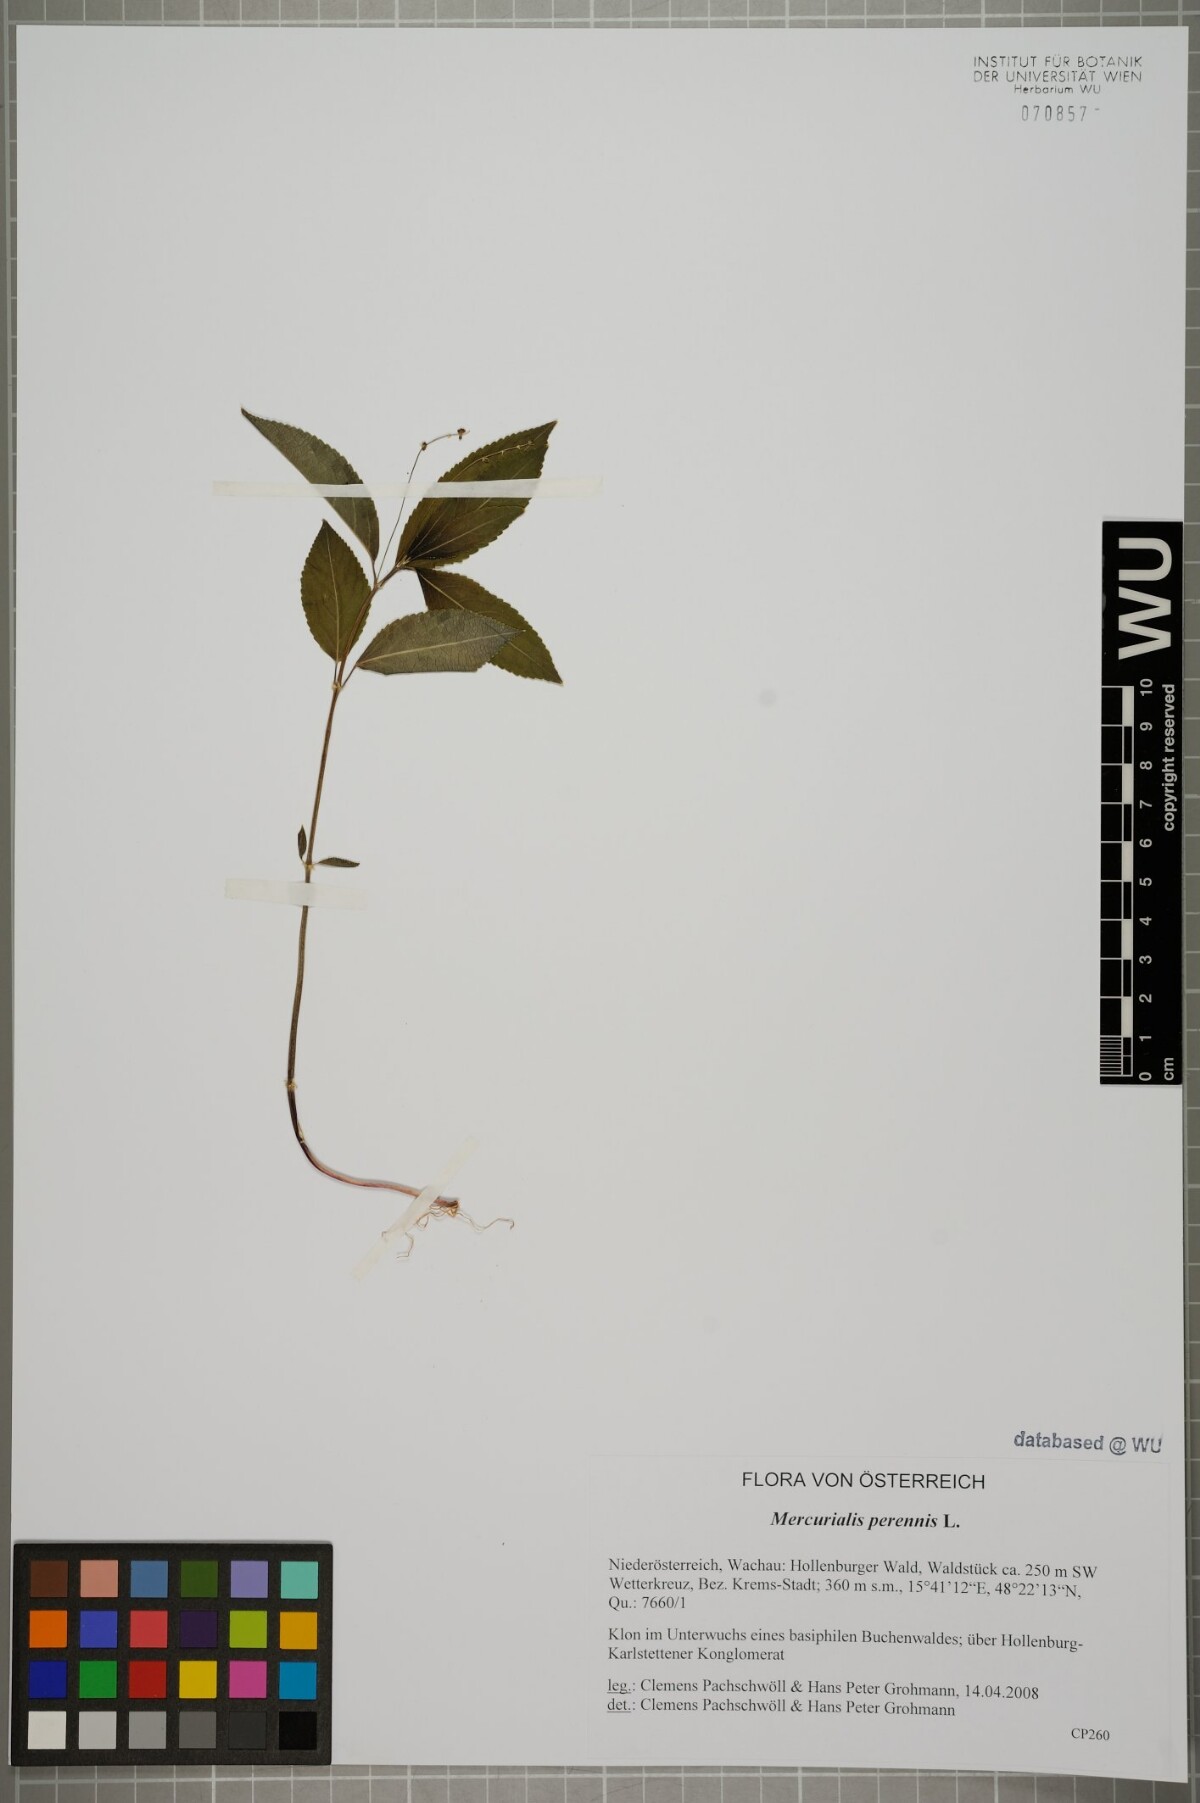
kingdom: Plantae
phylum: Tracheophyta
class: Magnoliopsida
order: Malpighiales
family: Euphorbiaceae
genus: Mercurialis
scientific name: Mercurialis perennis
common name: Dog mercury
